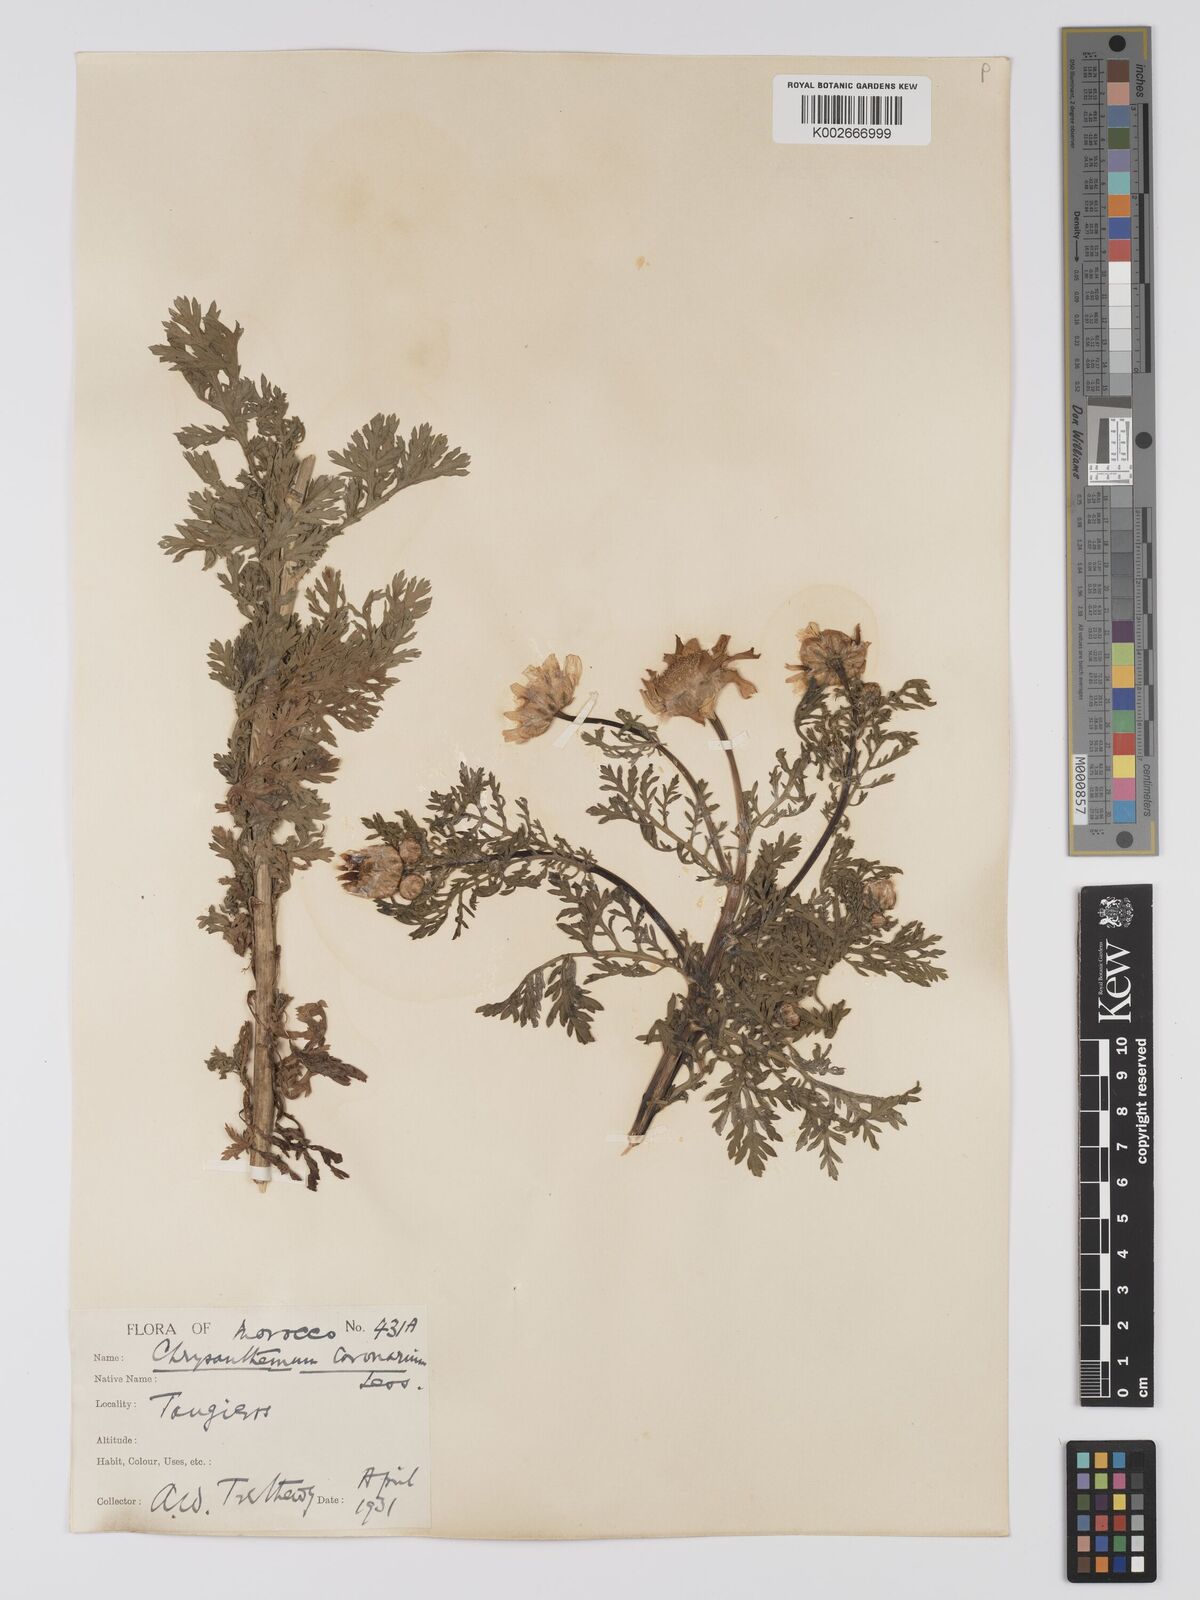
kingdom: Plantae
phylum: Tracheophyta
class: Magnoliopsida
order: Asterales
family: Asteraceae
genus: Glebionis
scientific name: Glebionis coronaria
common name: Crowndaisy
